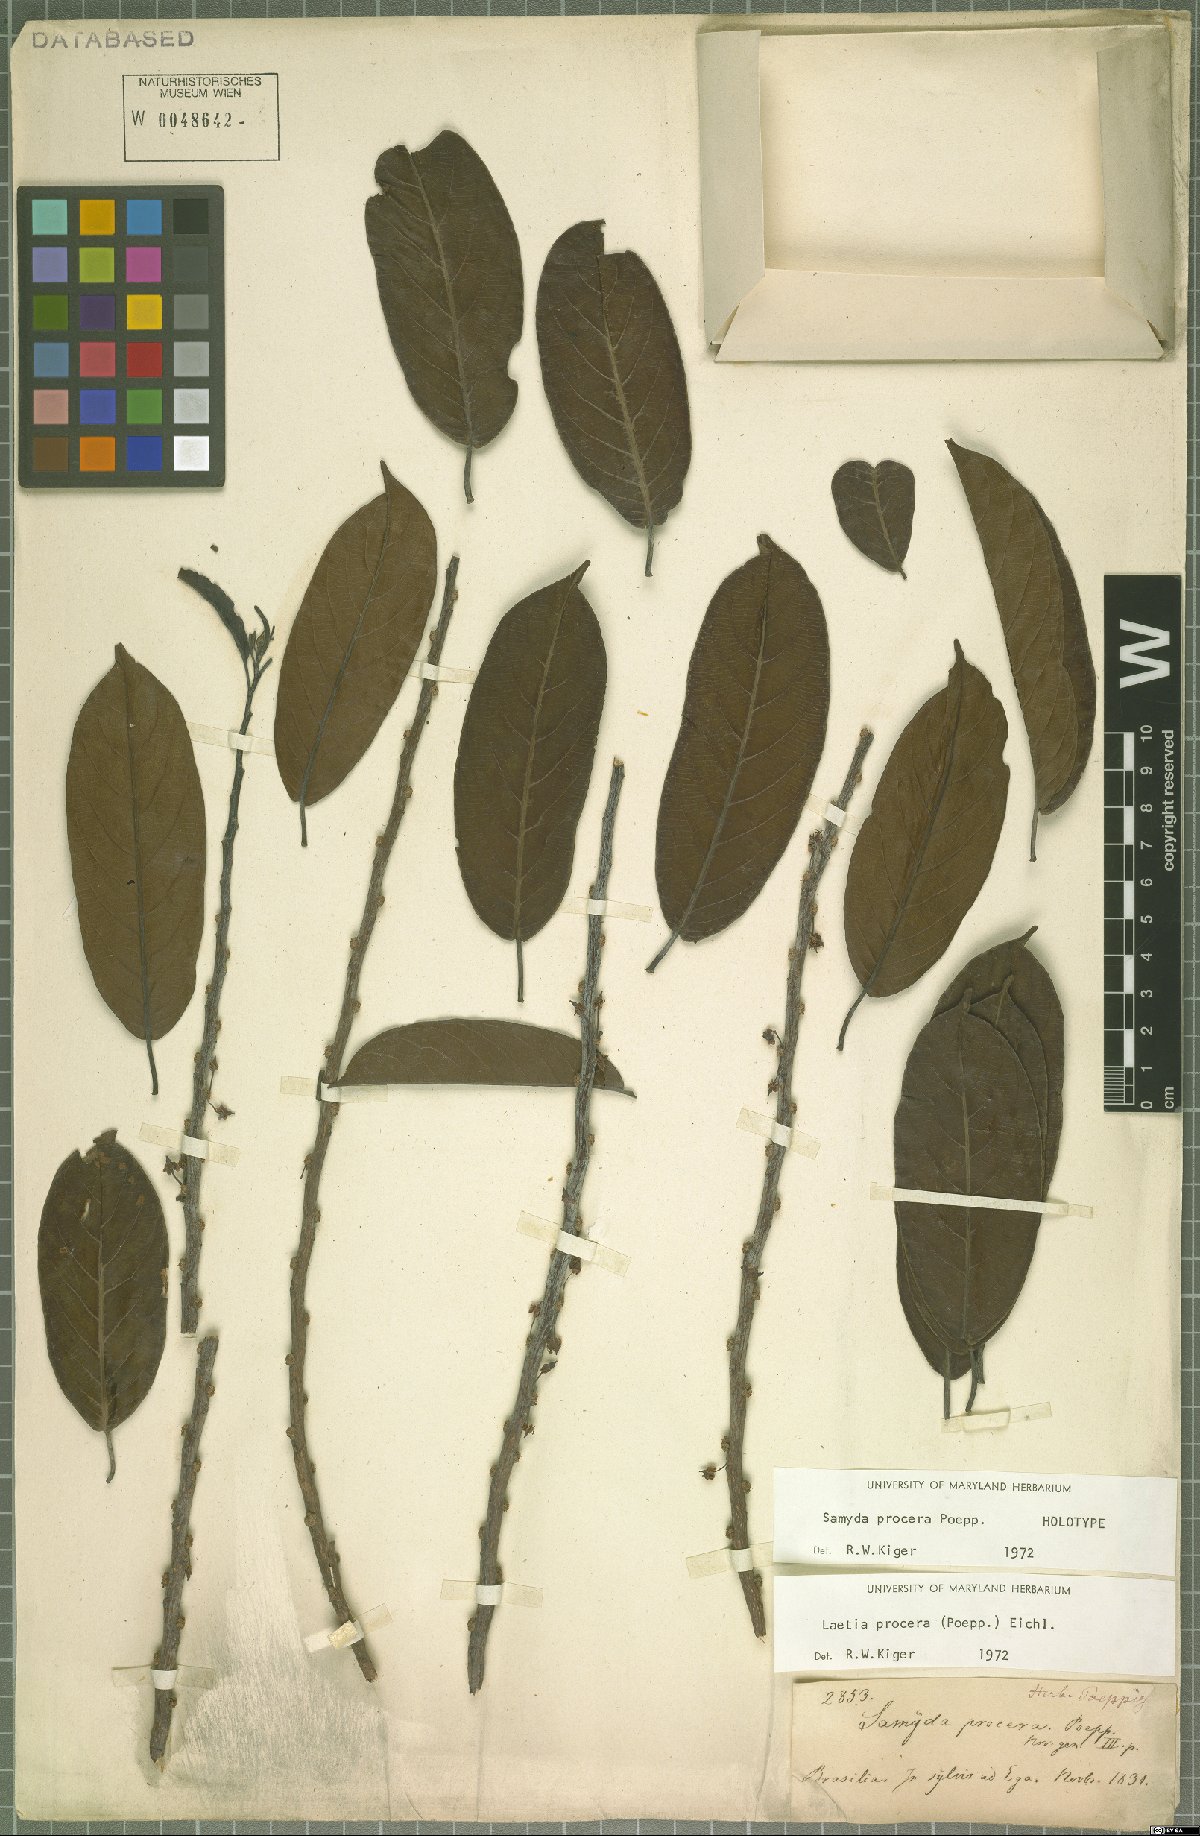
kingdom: Plantae
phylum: Tracheophyta
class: Magnoliopsida
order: Malpighiales
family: Salicaceae
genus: Casearia
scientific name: Casearia bicolor
